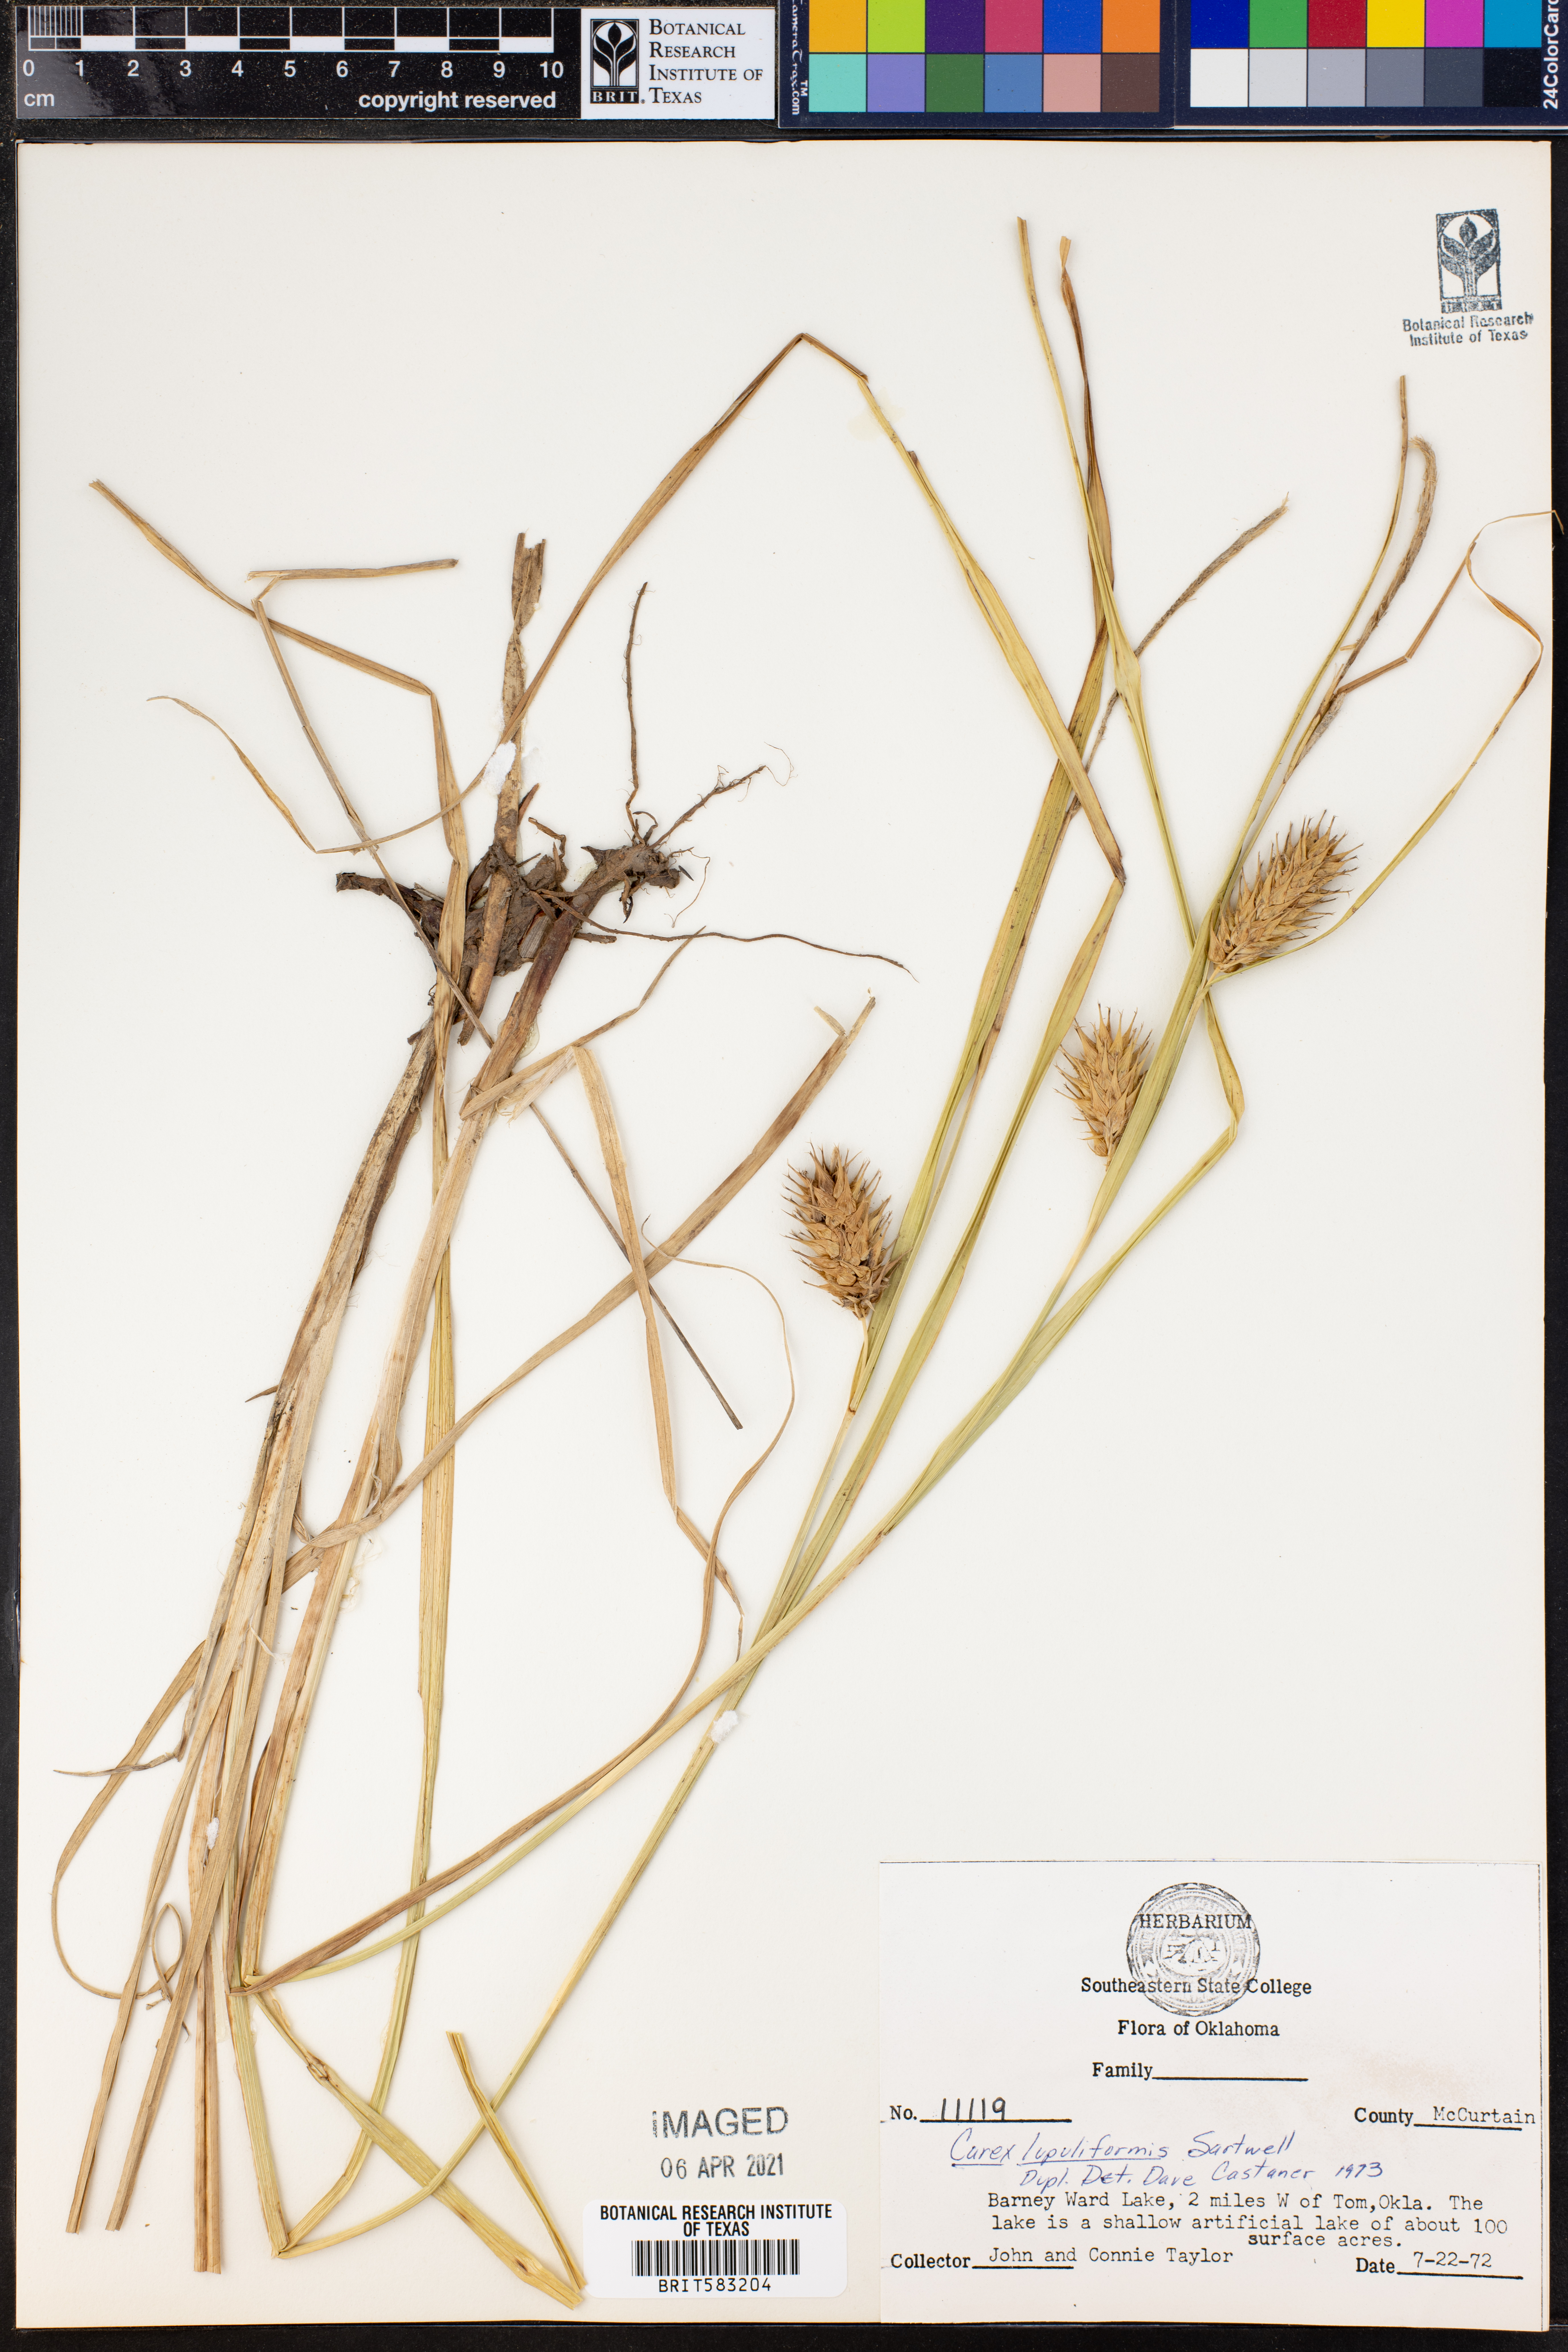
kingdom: Plantae
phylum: Tracheophyta
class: Liliopsida
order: Poales
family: Cyperaceae
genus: Carex
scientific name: Carex lupuliformis
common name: False hop sedge
